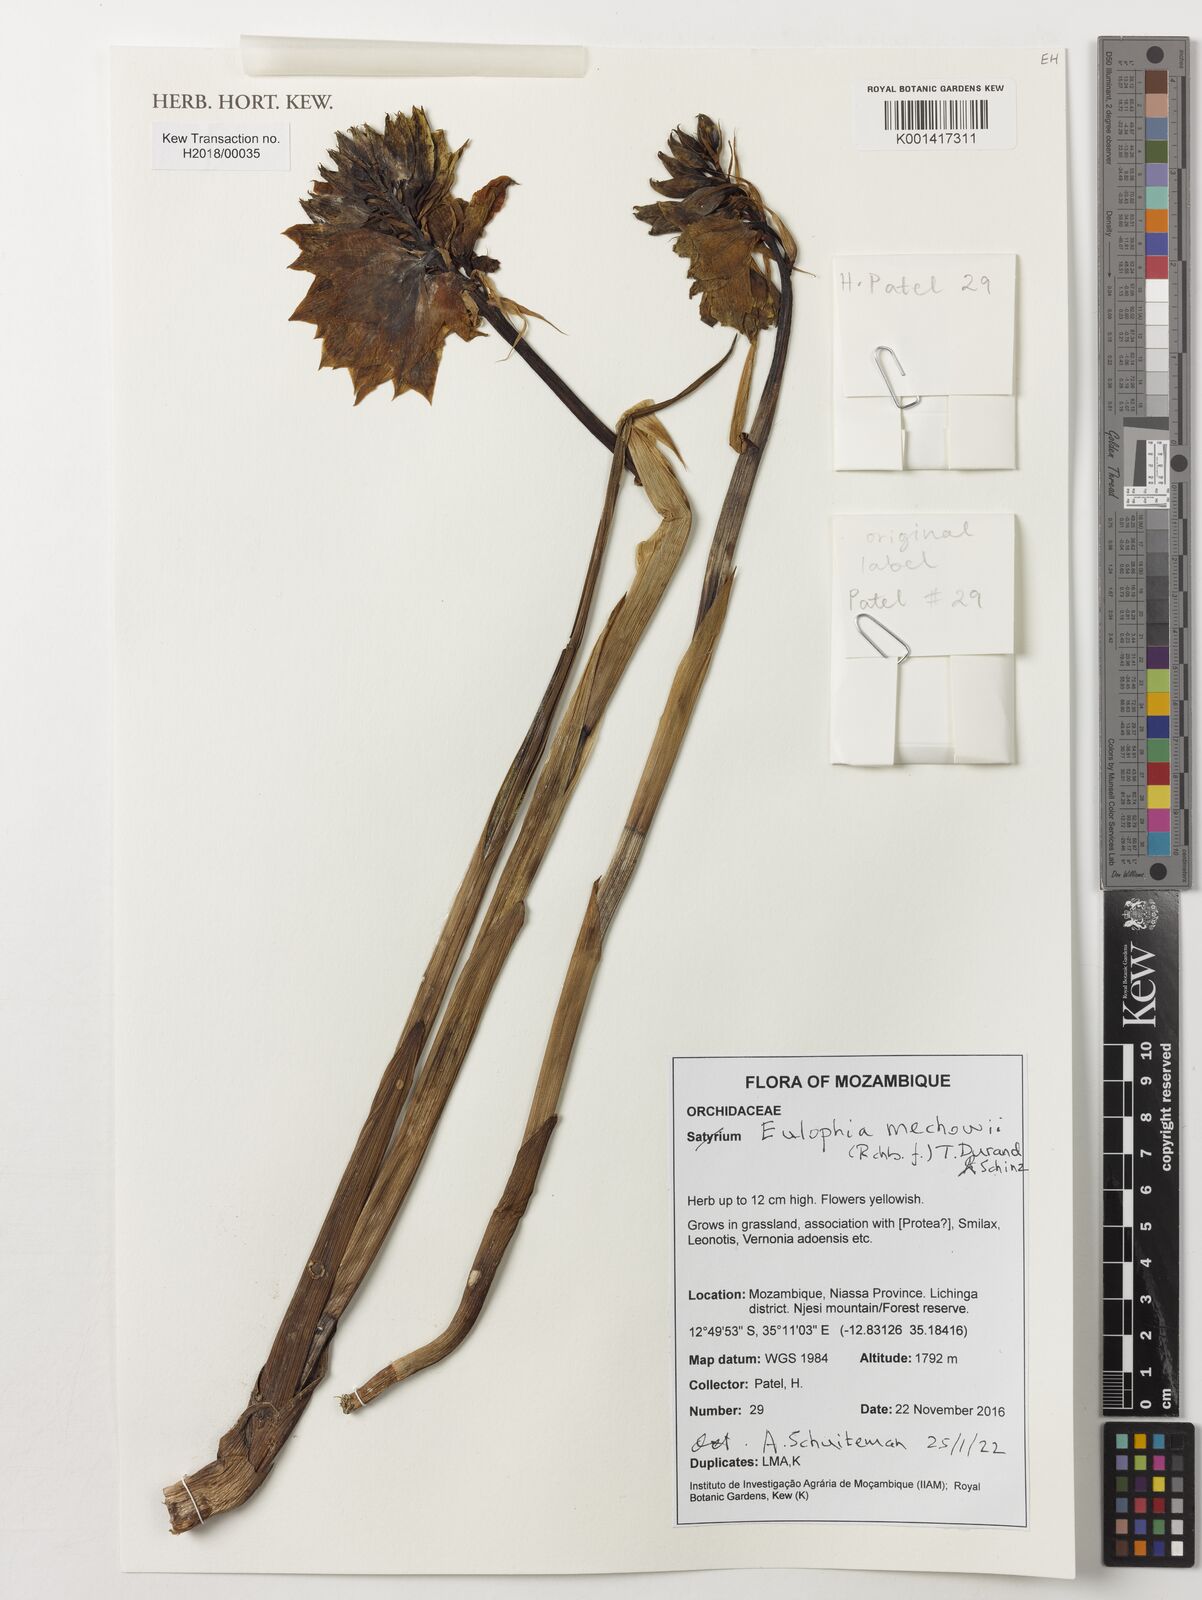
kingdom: Plantae
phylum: Tracheophyta
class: Liliopsida
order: Asparagales
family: Orchidaceae
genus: Eulophia
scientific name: Eulophia mechowii
